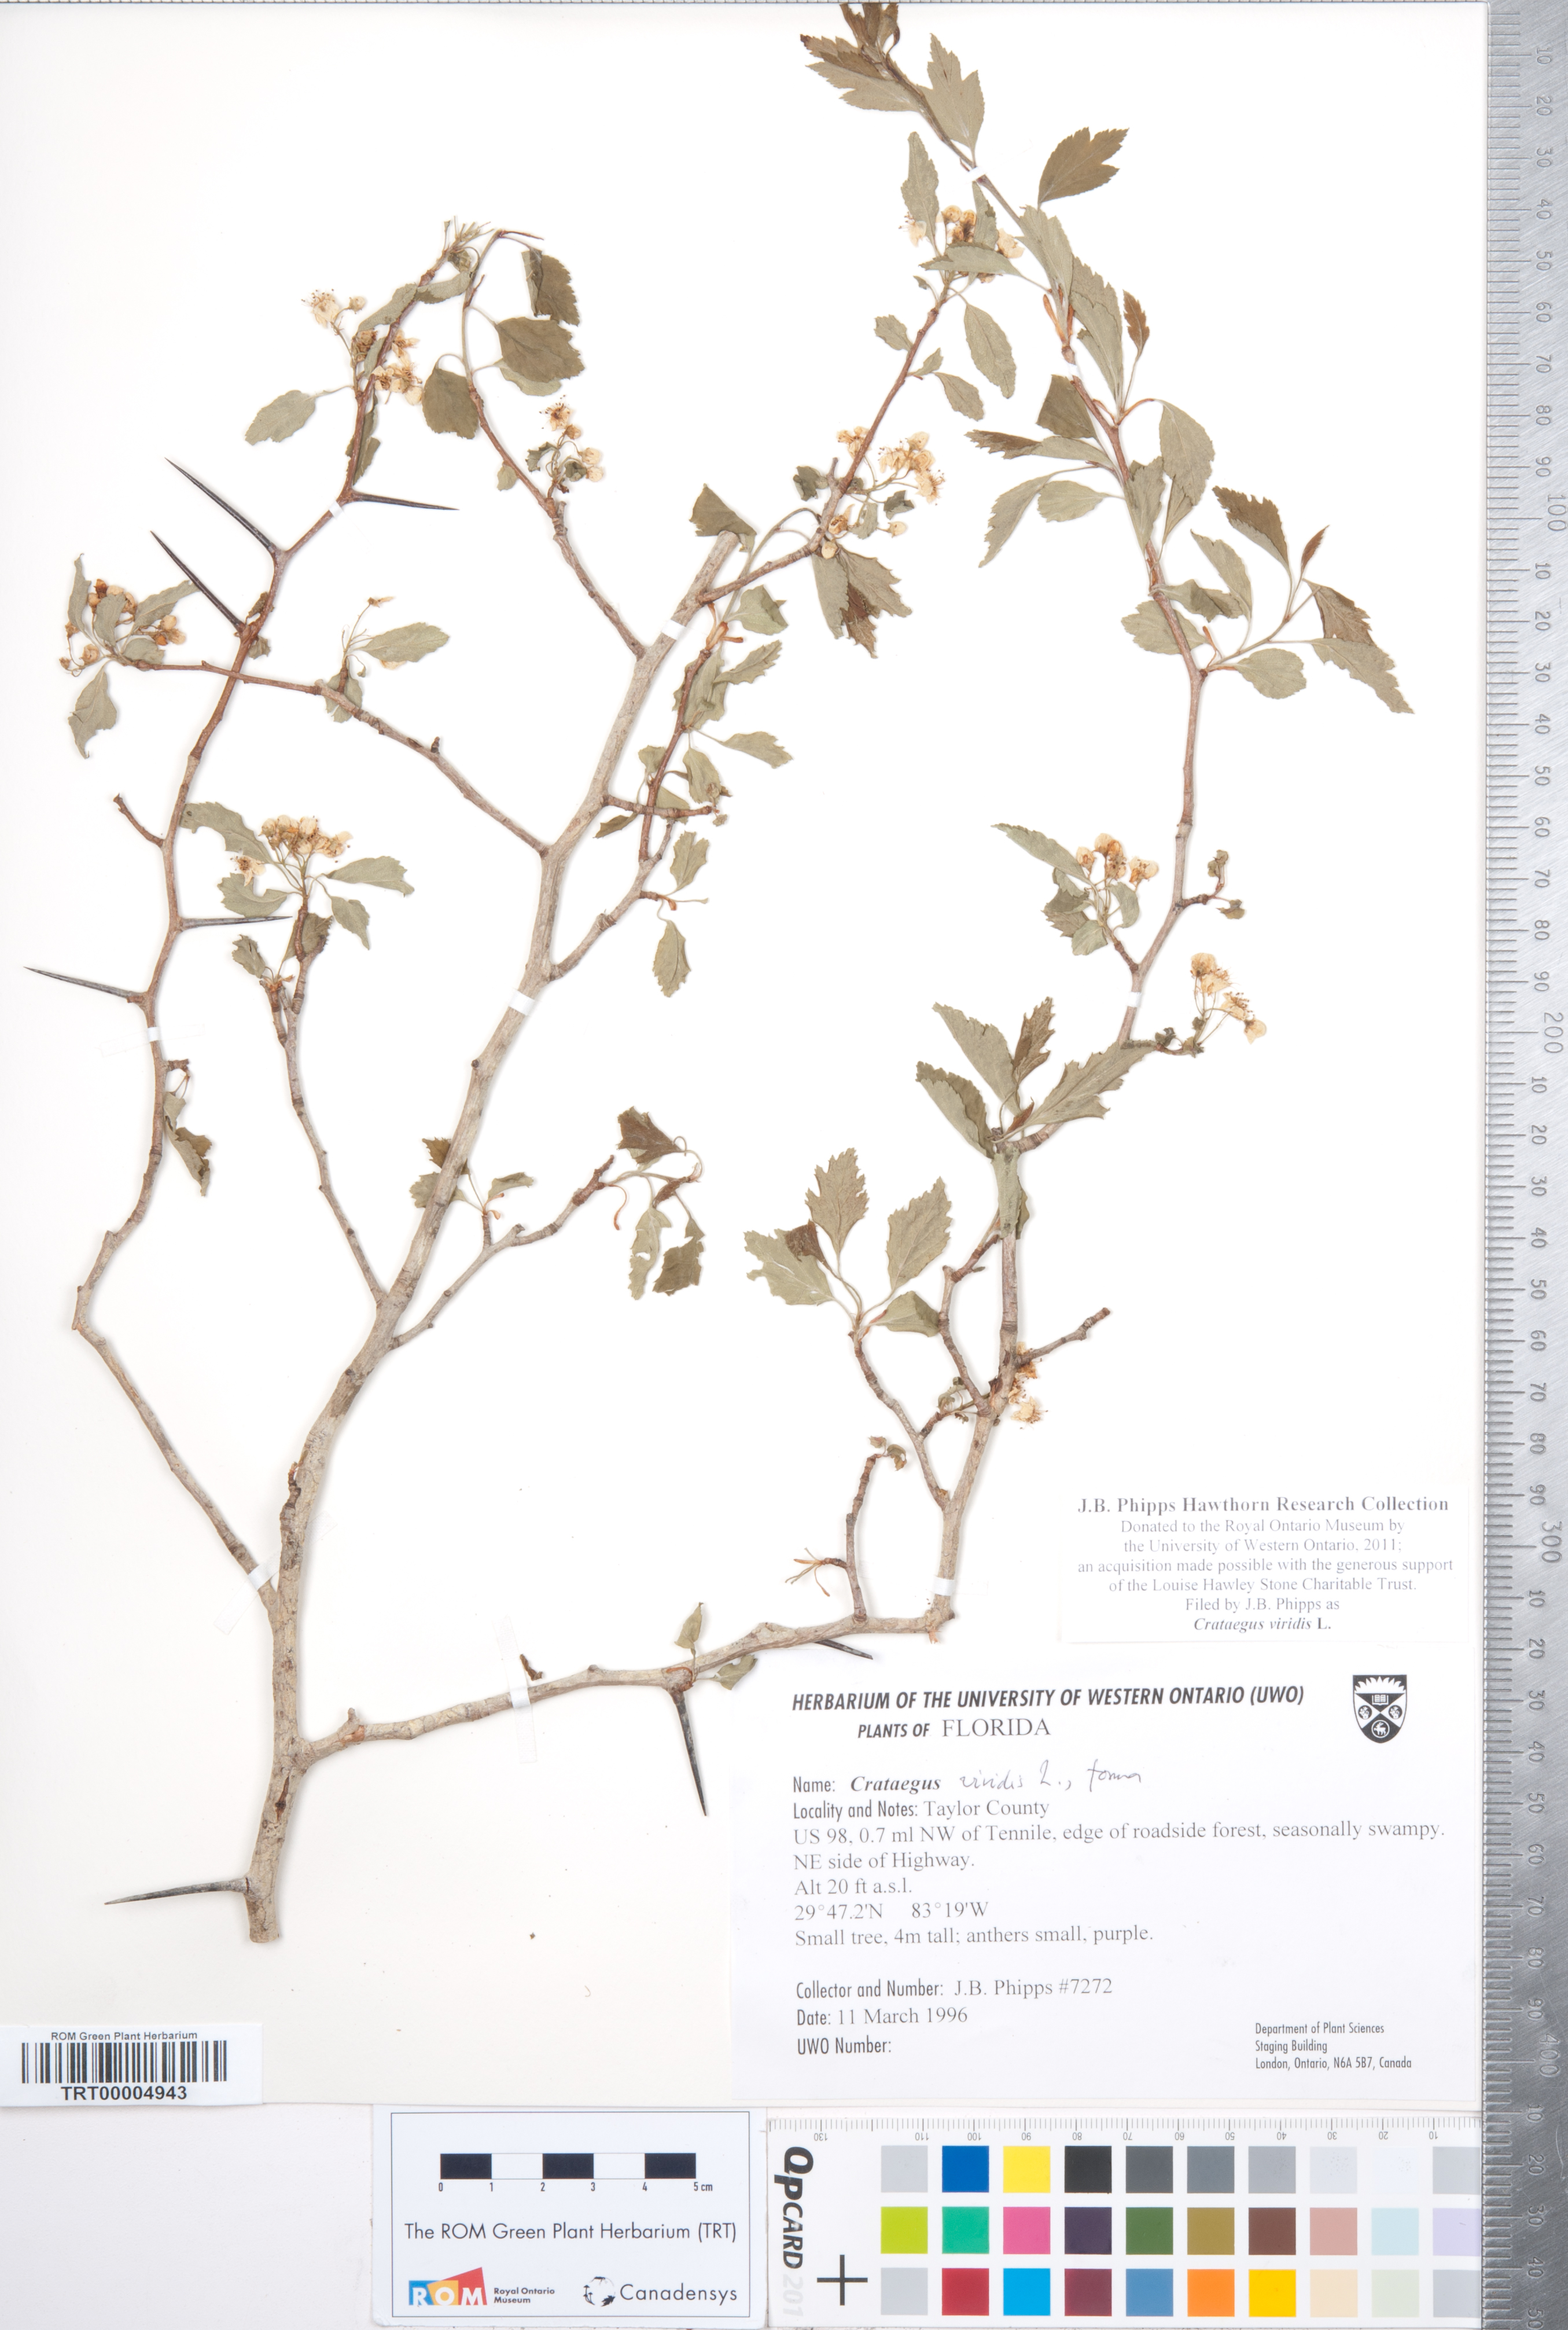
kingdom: Plantae
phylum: Tracheophyta
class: Magnoliopsida
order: Rosales
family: Rosaceae
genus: Crataegus
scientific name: Crataegus viridis
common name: Southernthorn
